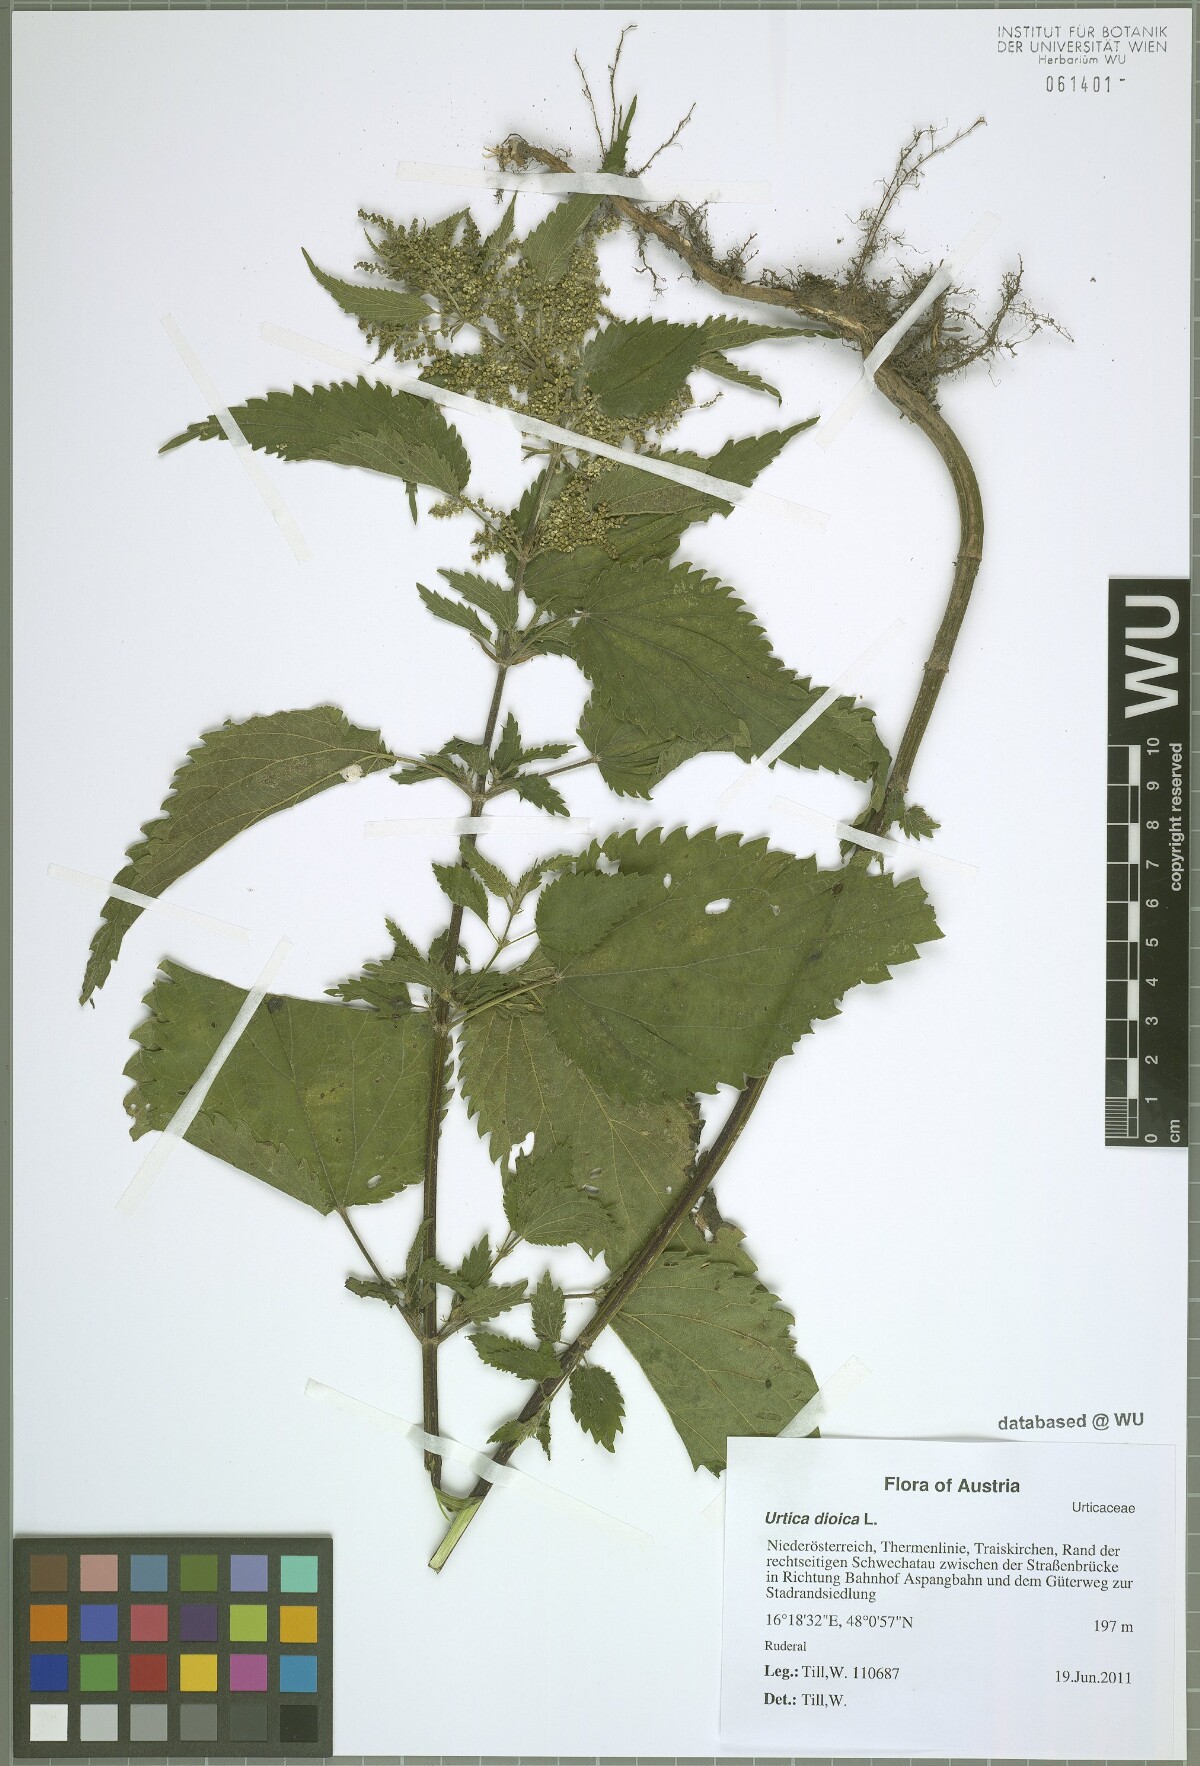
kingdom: Plantae
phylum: Tracheophyta
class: Magnoliopsida
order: Rosales
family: Urticaceae
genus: Urtica
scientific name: Urtica dioica
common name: Common nettle
